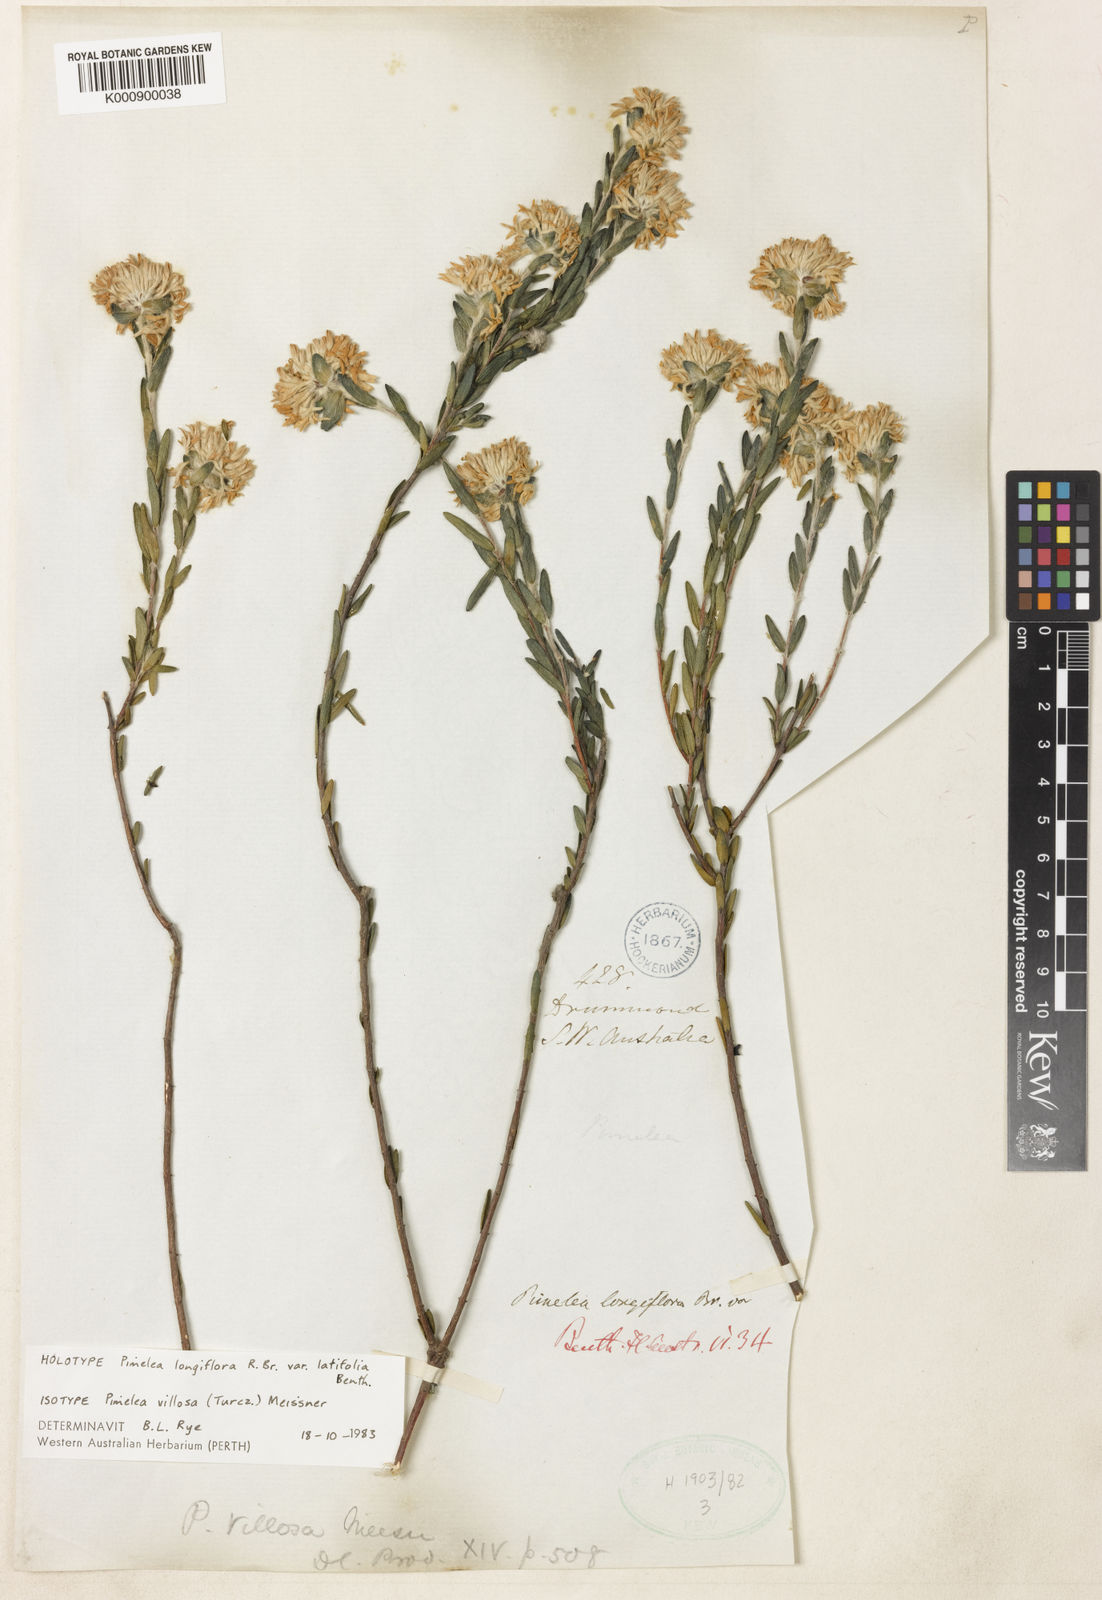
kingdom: Plantae
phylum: Tracheophyta
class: Magnoliopsida
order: Malvales
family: Thymelaeaceae
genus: Pimelea
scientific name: Pimelea longiflora
